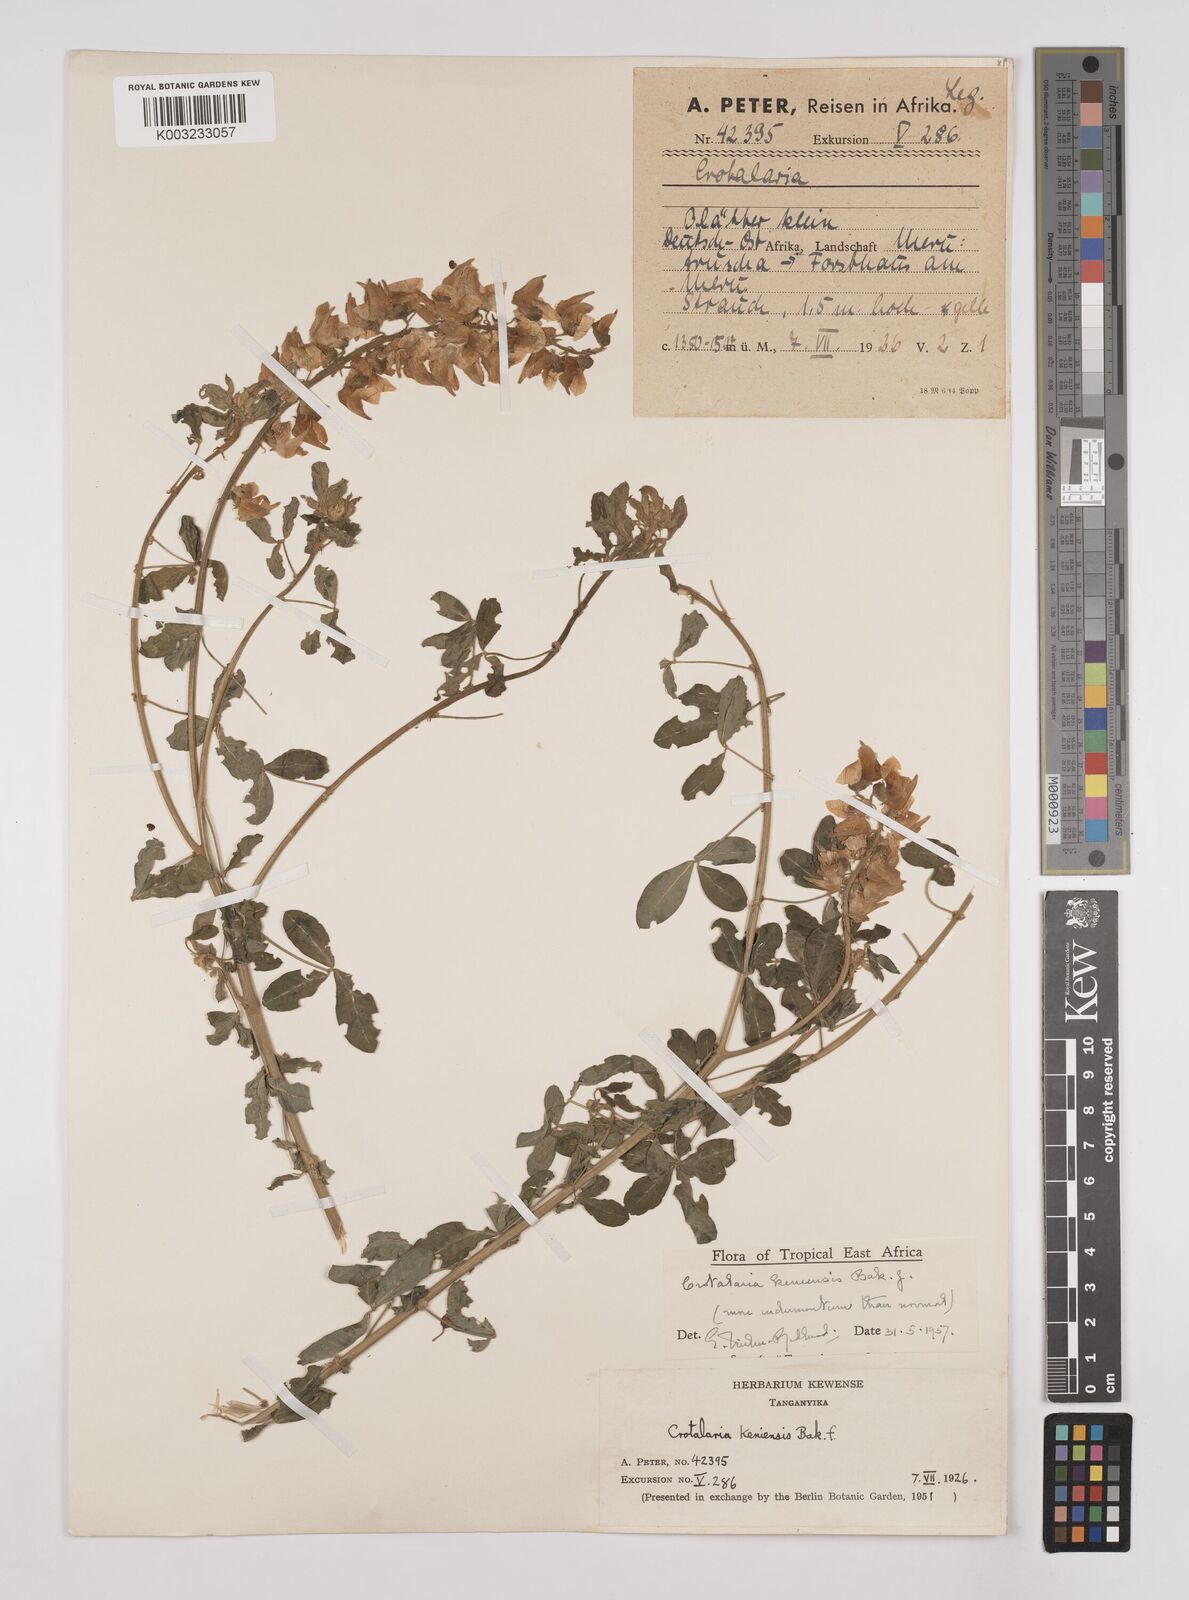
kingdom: Plantae
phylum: Tracheophyta
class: Magnoliopsida
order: Fabales
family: Fabaceae
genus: Crotalaria
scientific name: Crotalaria keniensis
